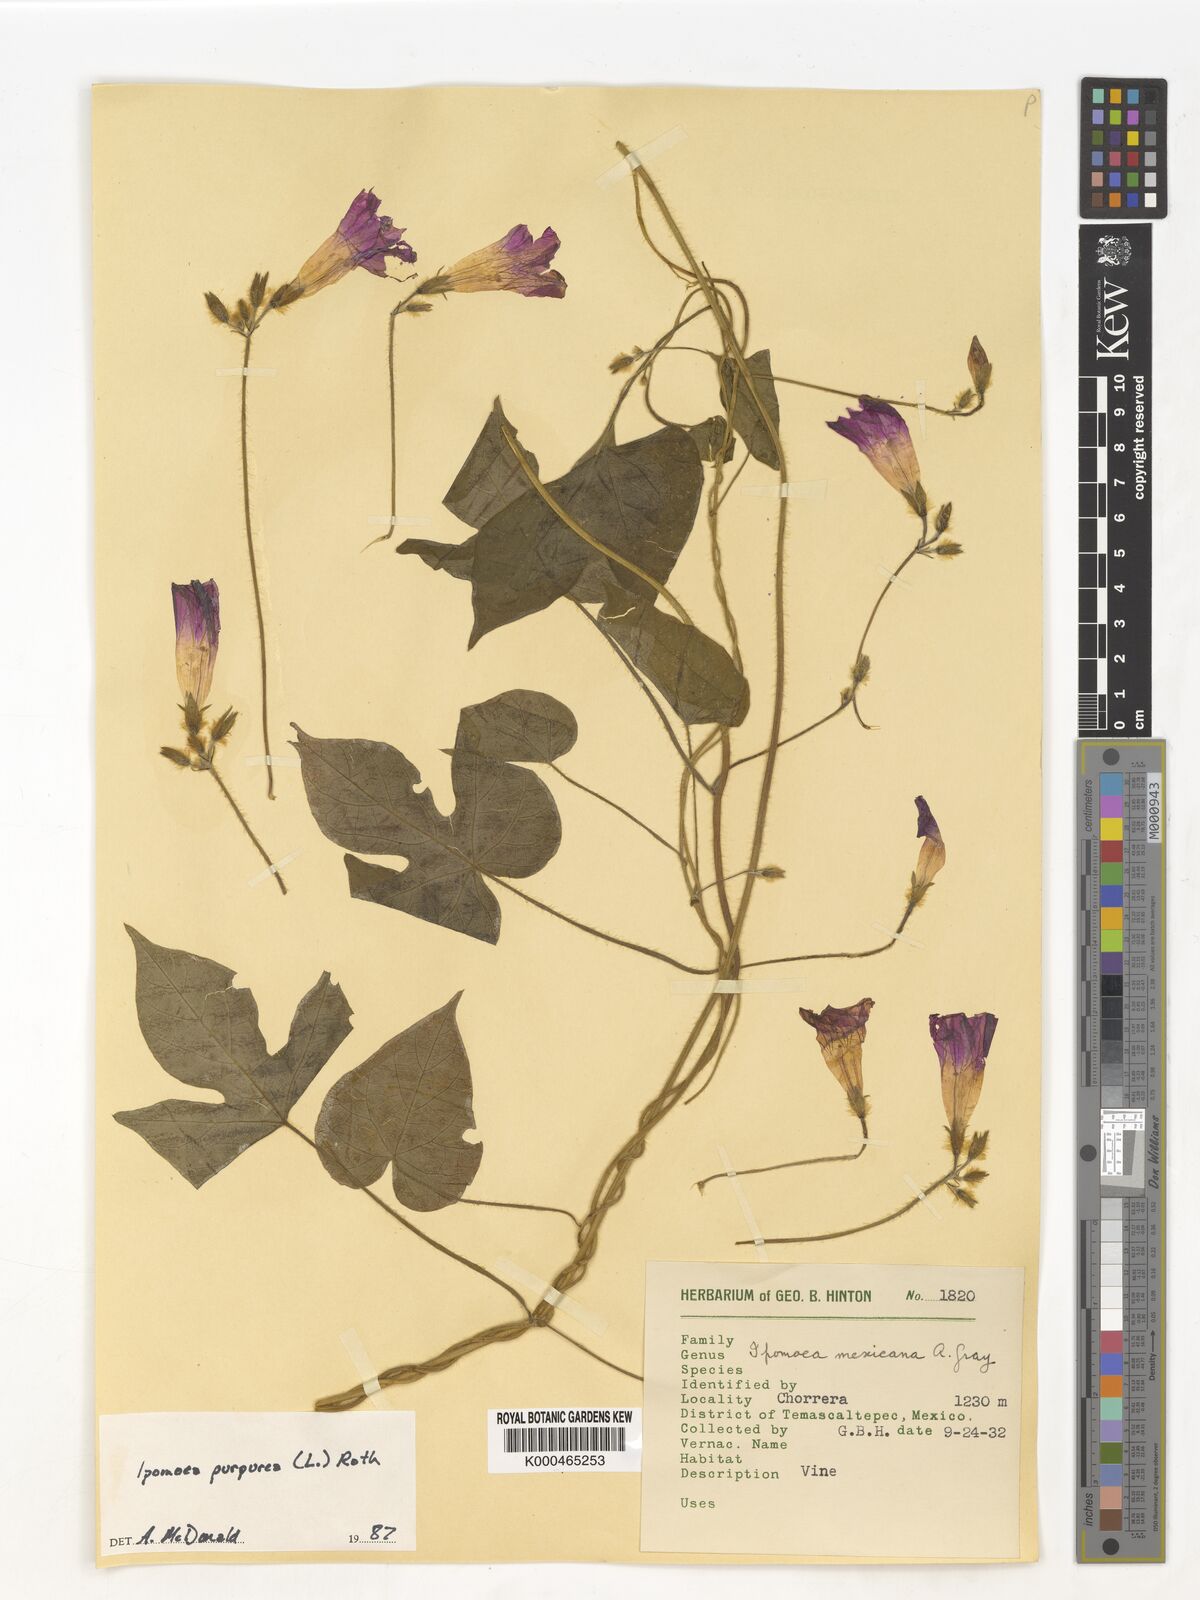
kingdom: Plantae
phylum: Tracheophyta
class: Magnoliopsida
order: Solanales
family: Convolvulaceae
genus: Ipomoea
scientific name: Ipomoea purpurea
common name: Common morning-glory
